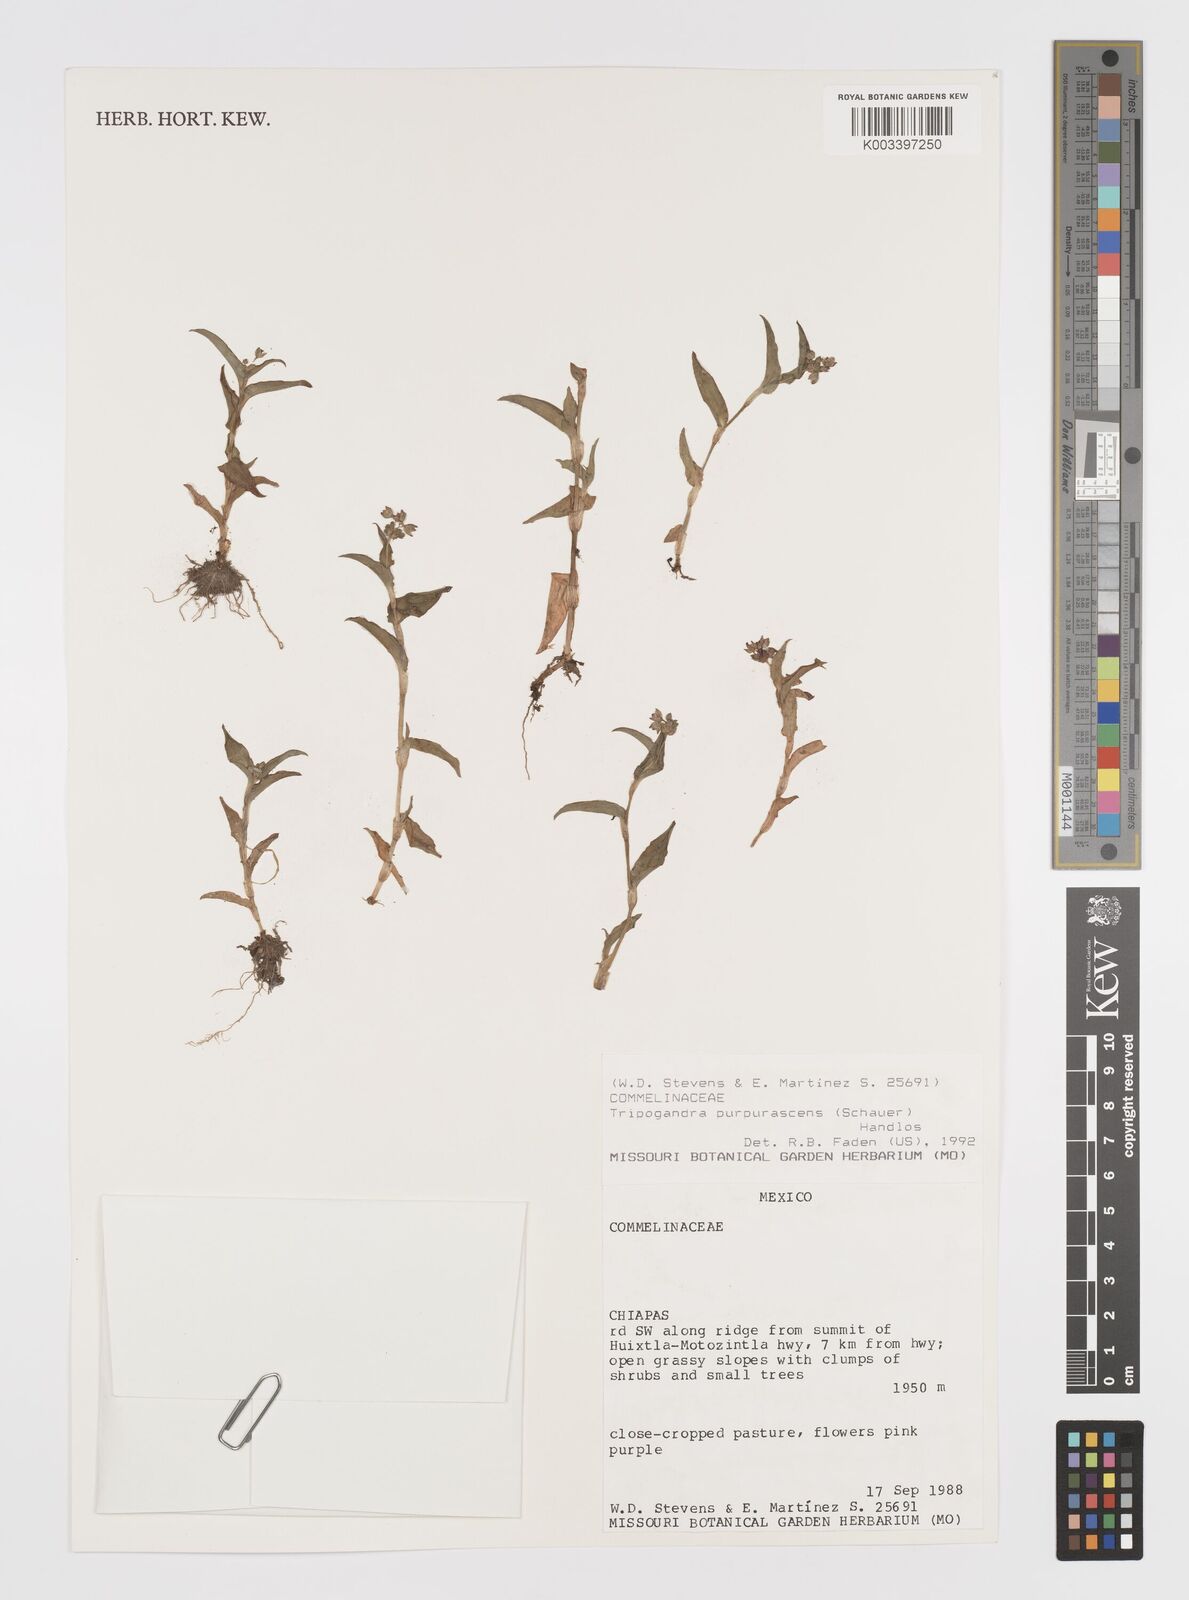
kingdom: Plantae
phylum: Tracheophyta
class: Liliopsida
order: Commelinales
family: Commelinaceae
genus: Callisia
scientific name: Callisia purpurascens
